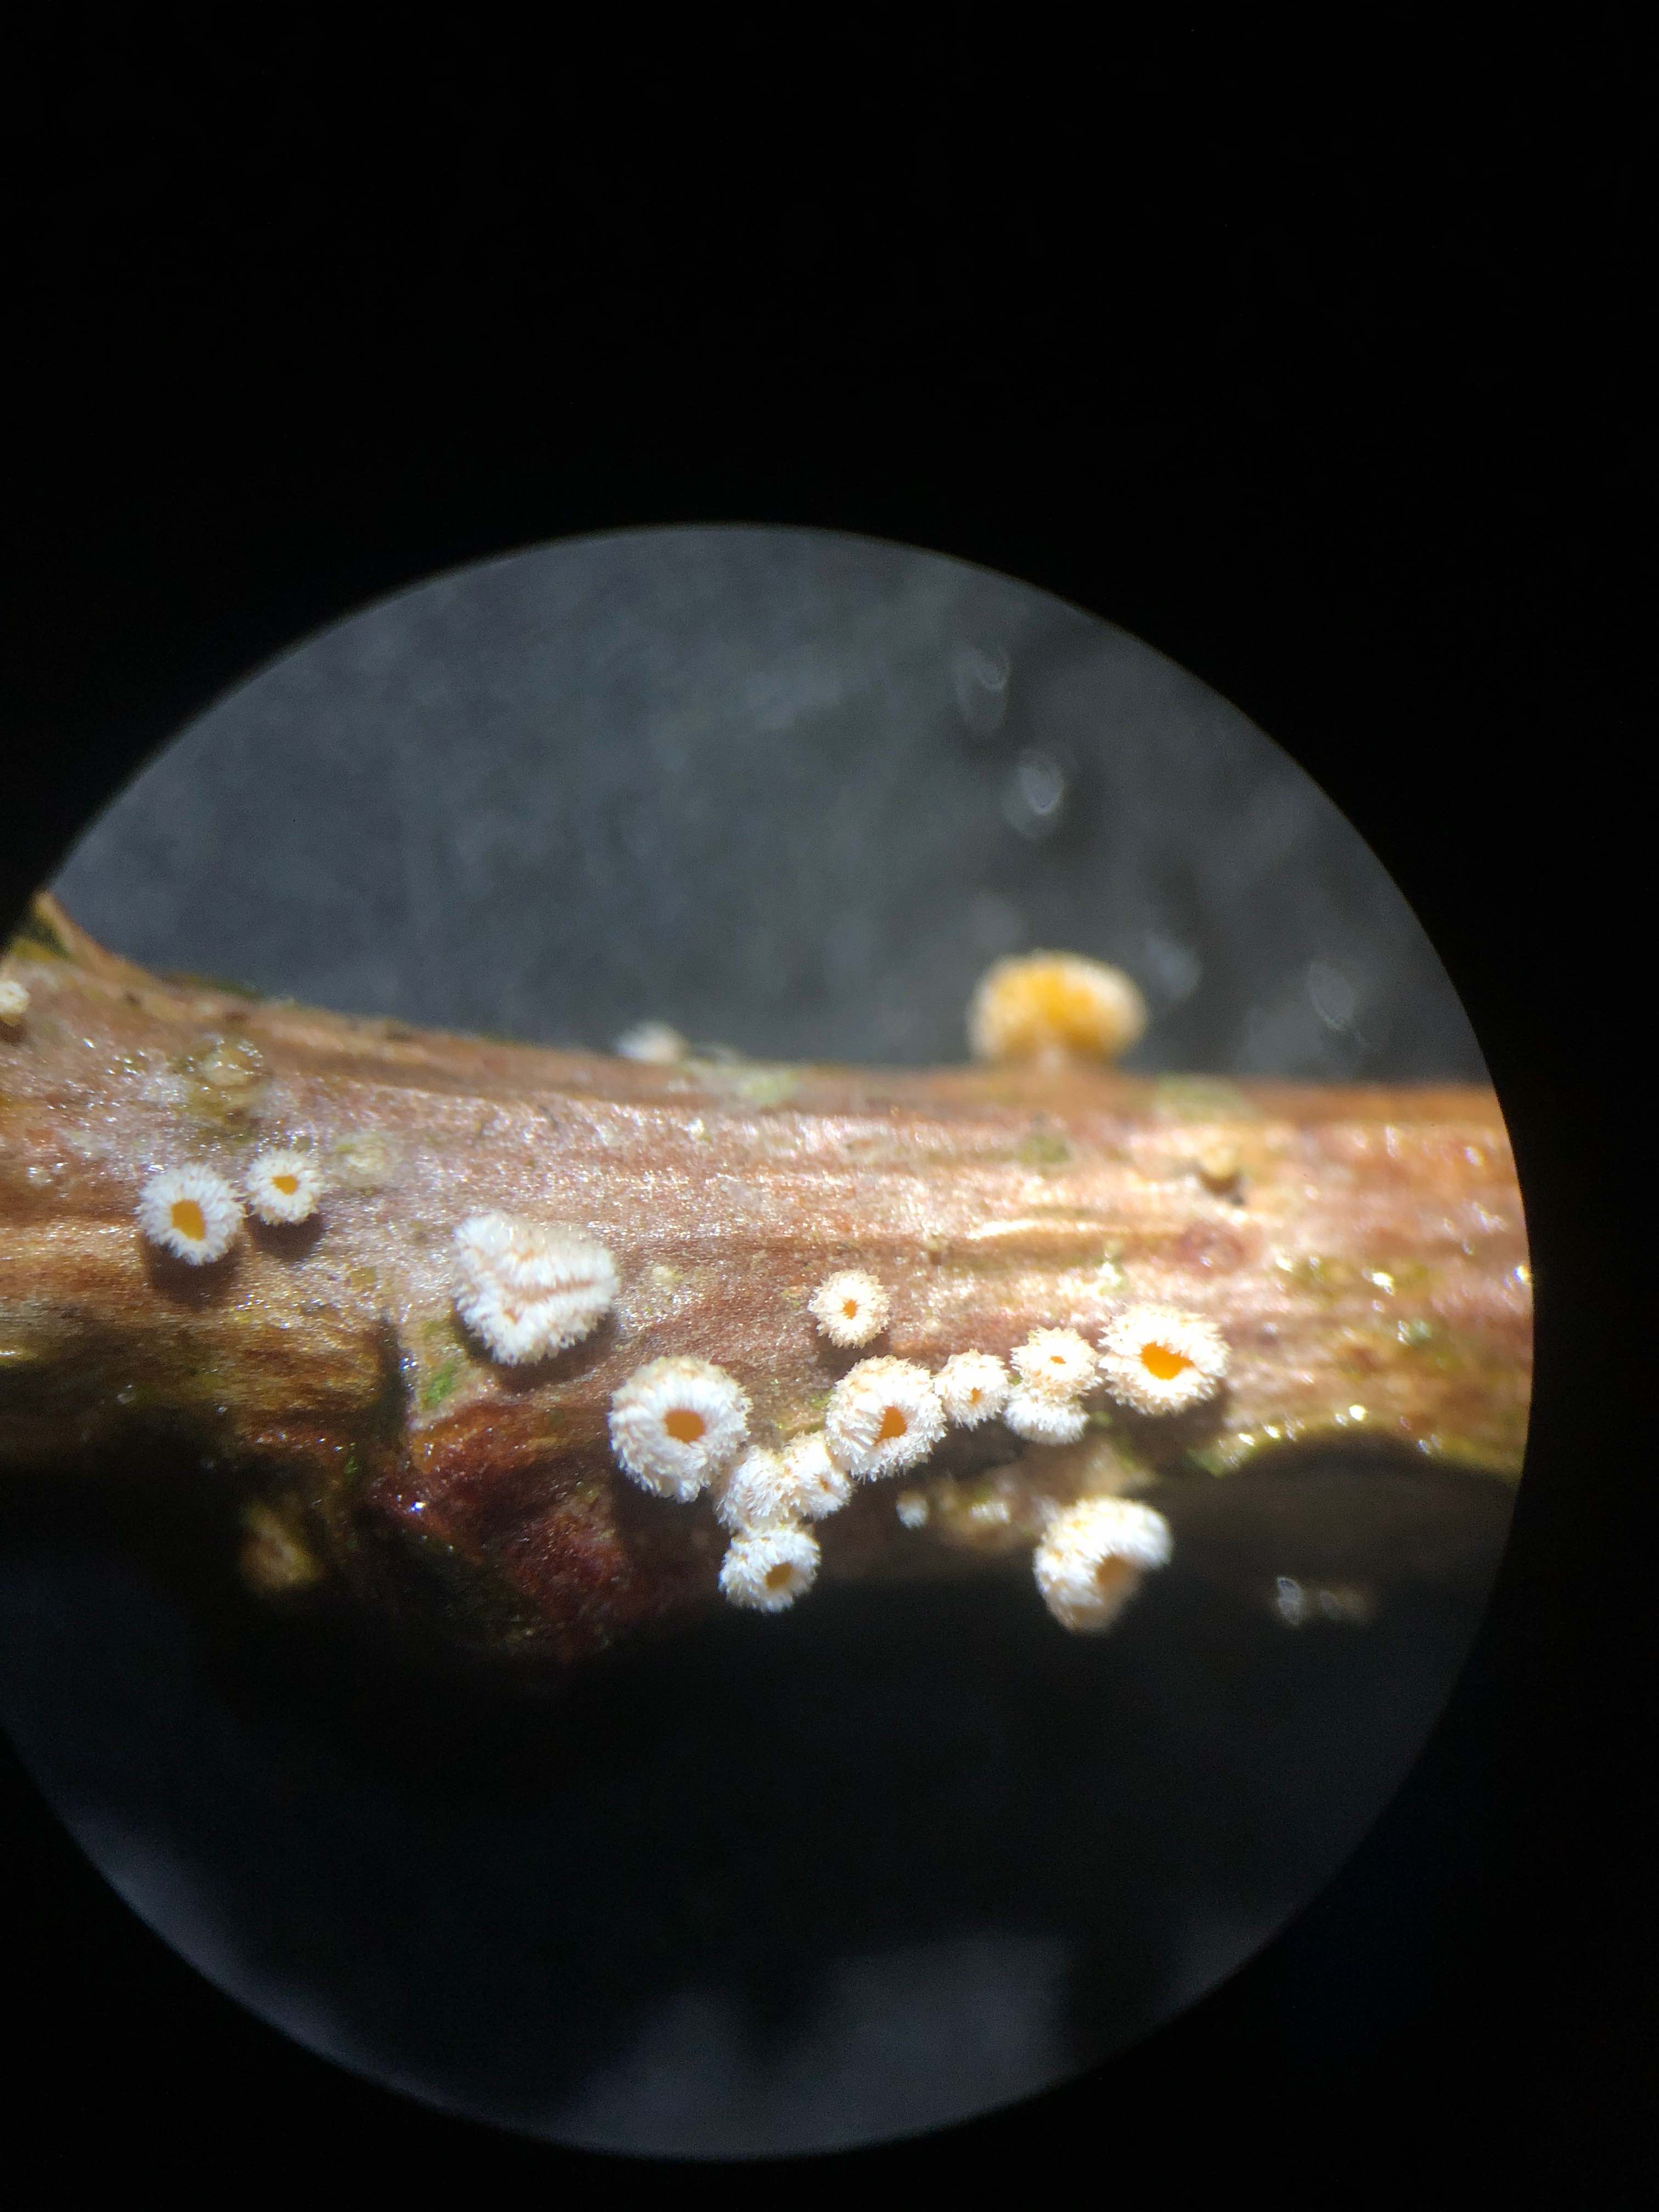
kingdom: Fungi
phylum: Ascomycota
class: Leotiomycetes
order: Helotiales
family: Lachnaceae
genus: Capitotricha
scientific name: Capitotricha bicolor
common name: prægtig frynseskive
